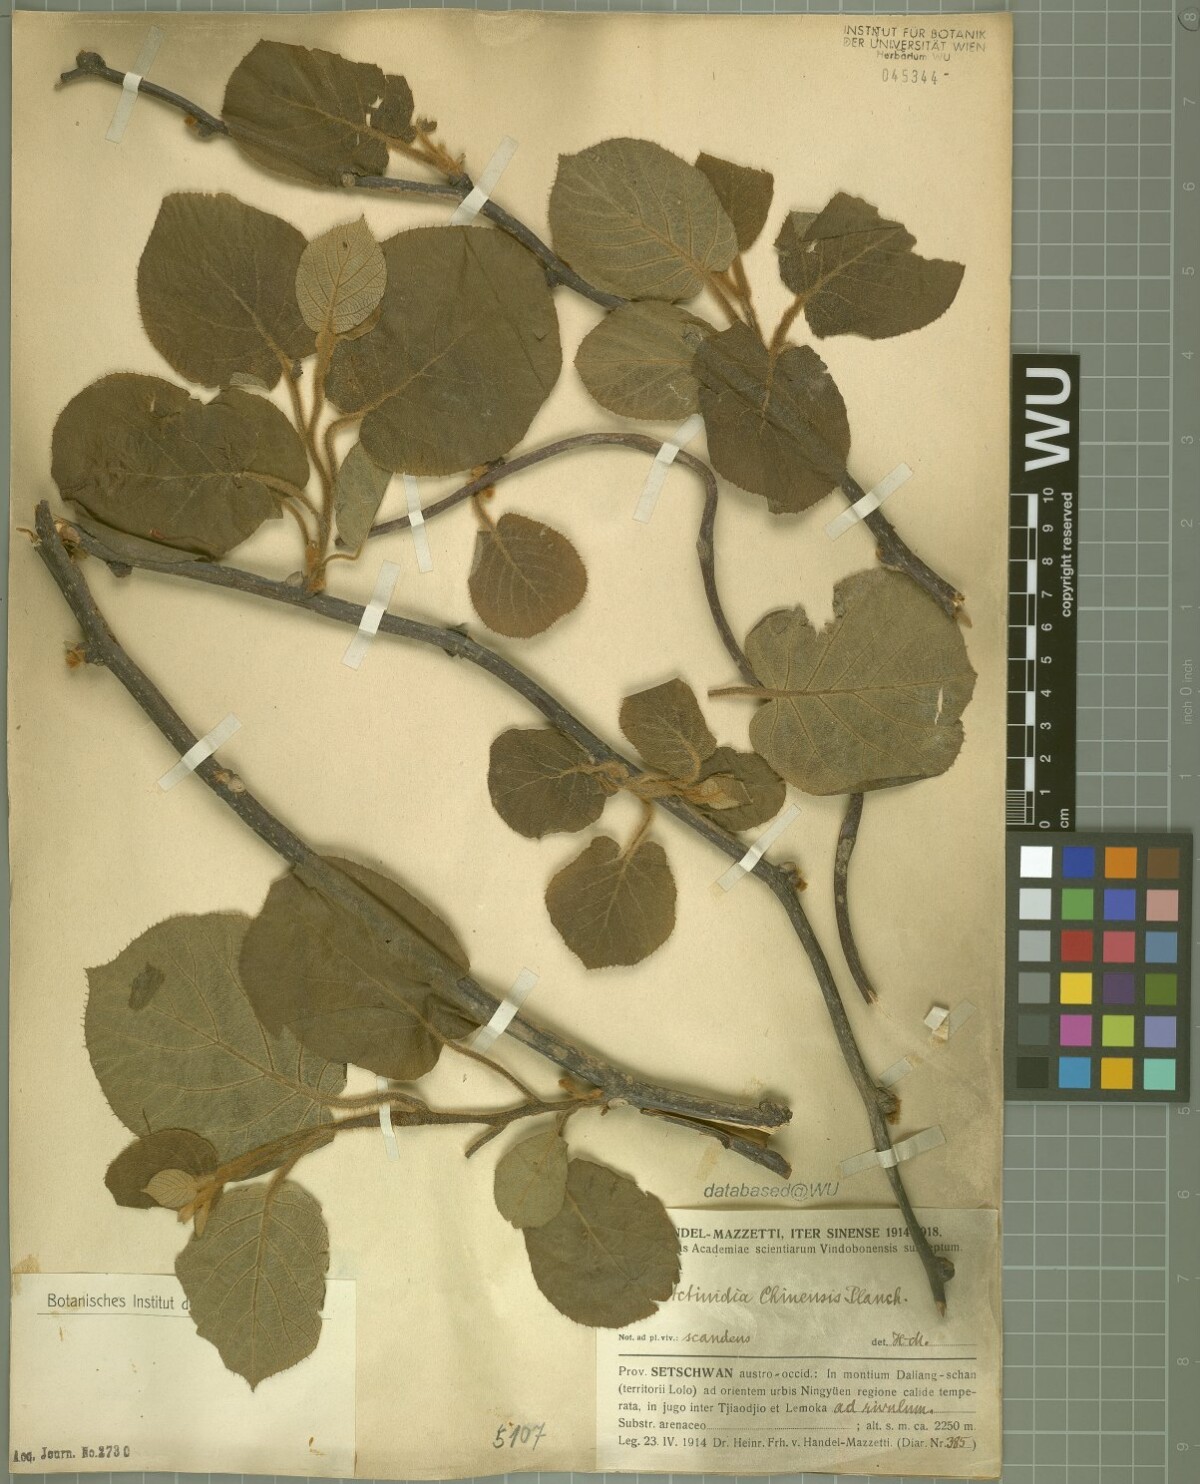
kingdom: Plantae
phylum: Tracheophyta
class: Magnoliopsida
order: Ericales
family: Actinidiaceae
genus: Actinidia
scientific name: Actinidia chinensis
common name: Kiwi
